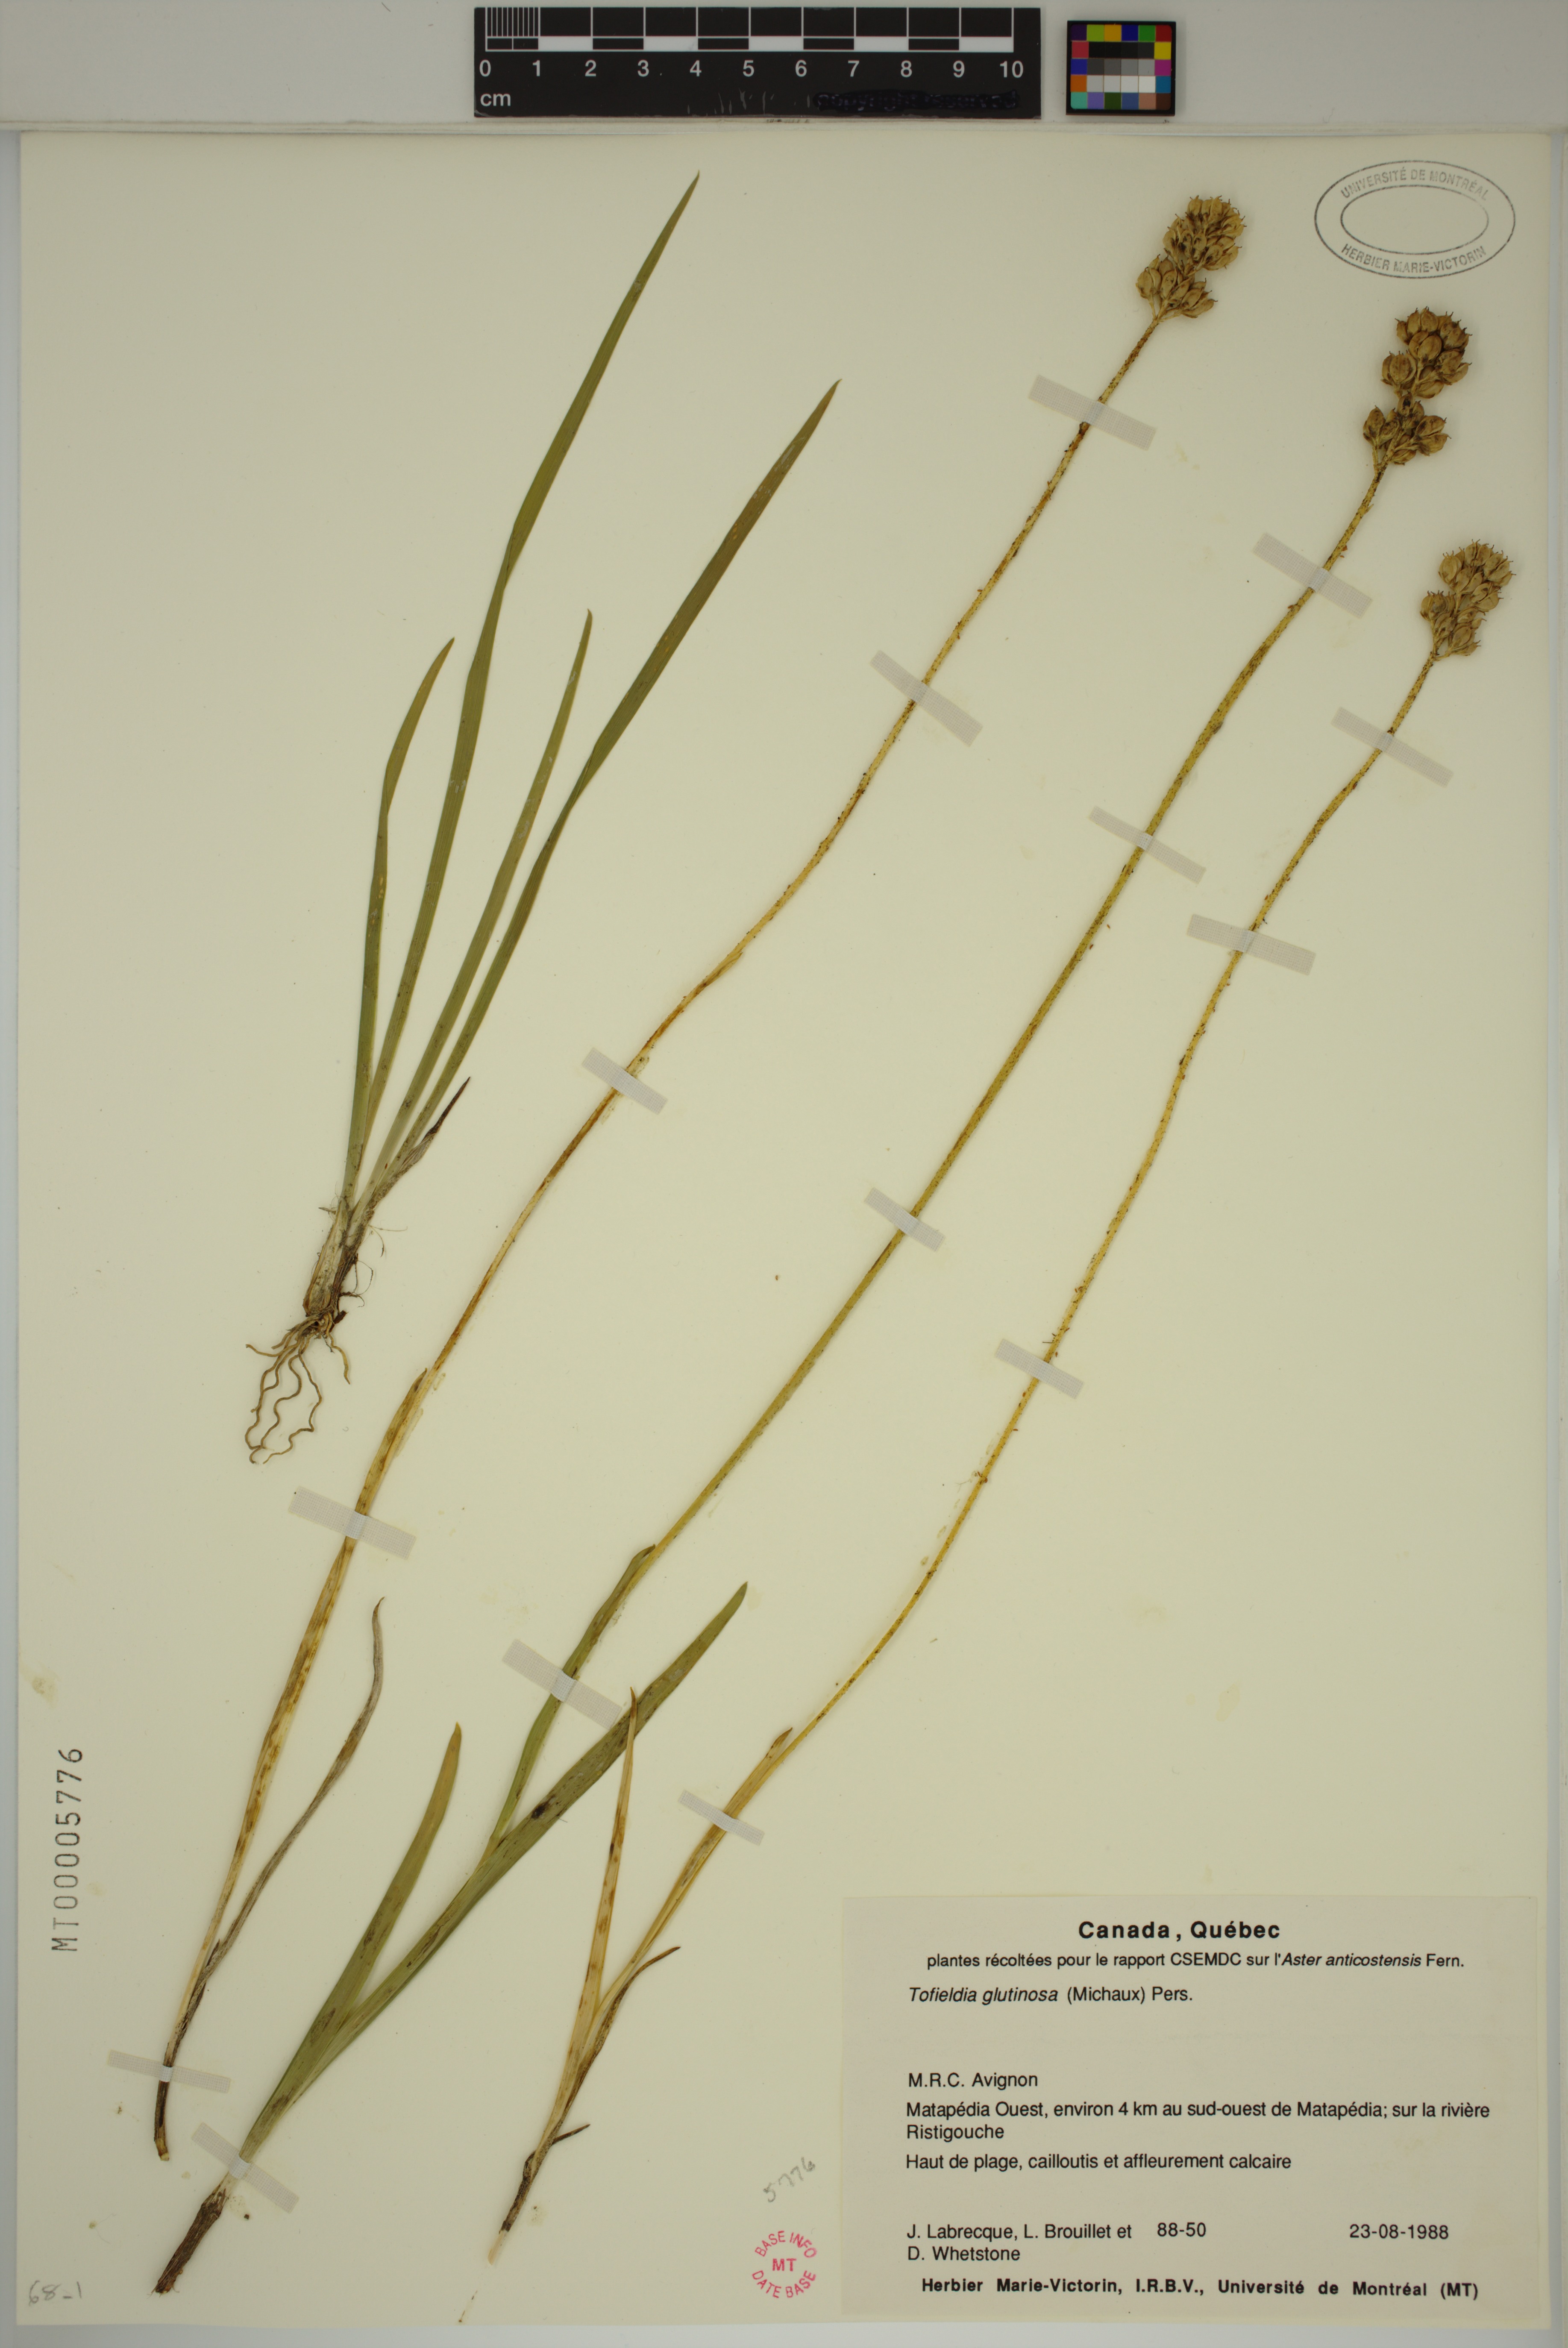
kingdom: Plantae
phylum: Tracheophyta
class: Liliopsida
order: Alismatales
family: Tofieldiaceae
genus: Triantha
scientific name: Triantha glutinosa
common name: Glutinous tofieldia
